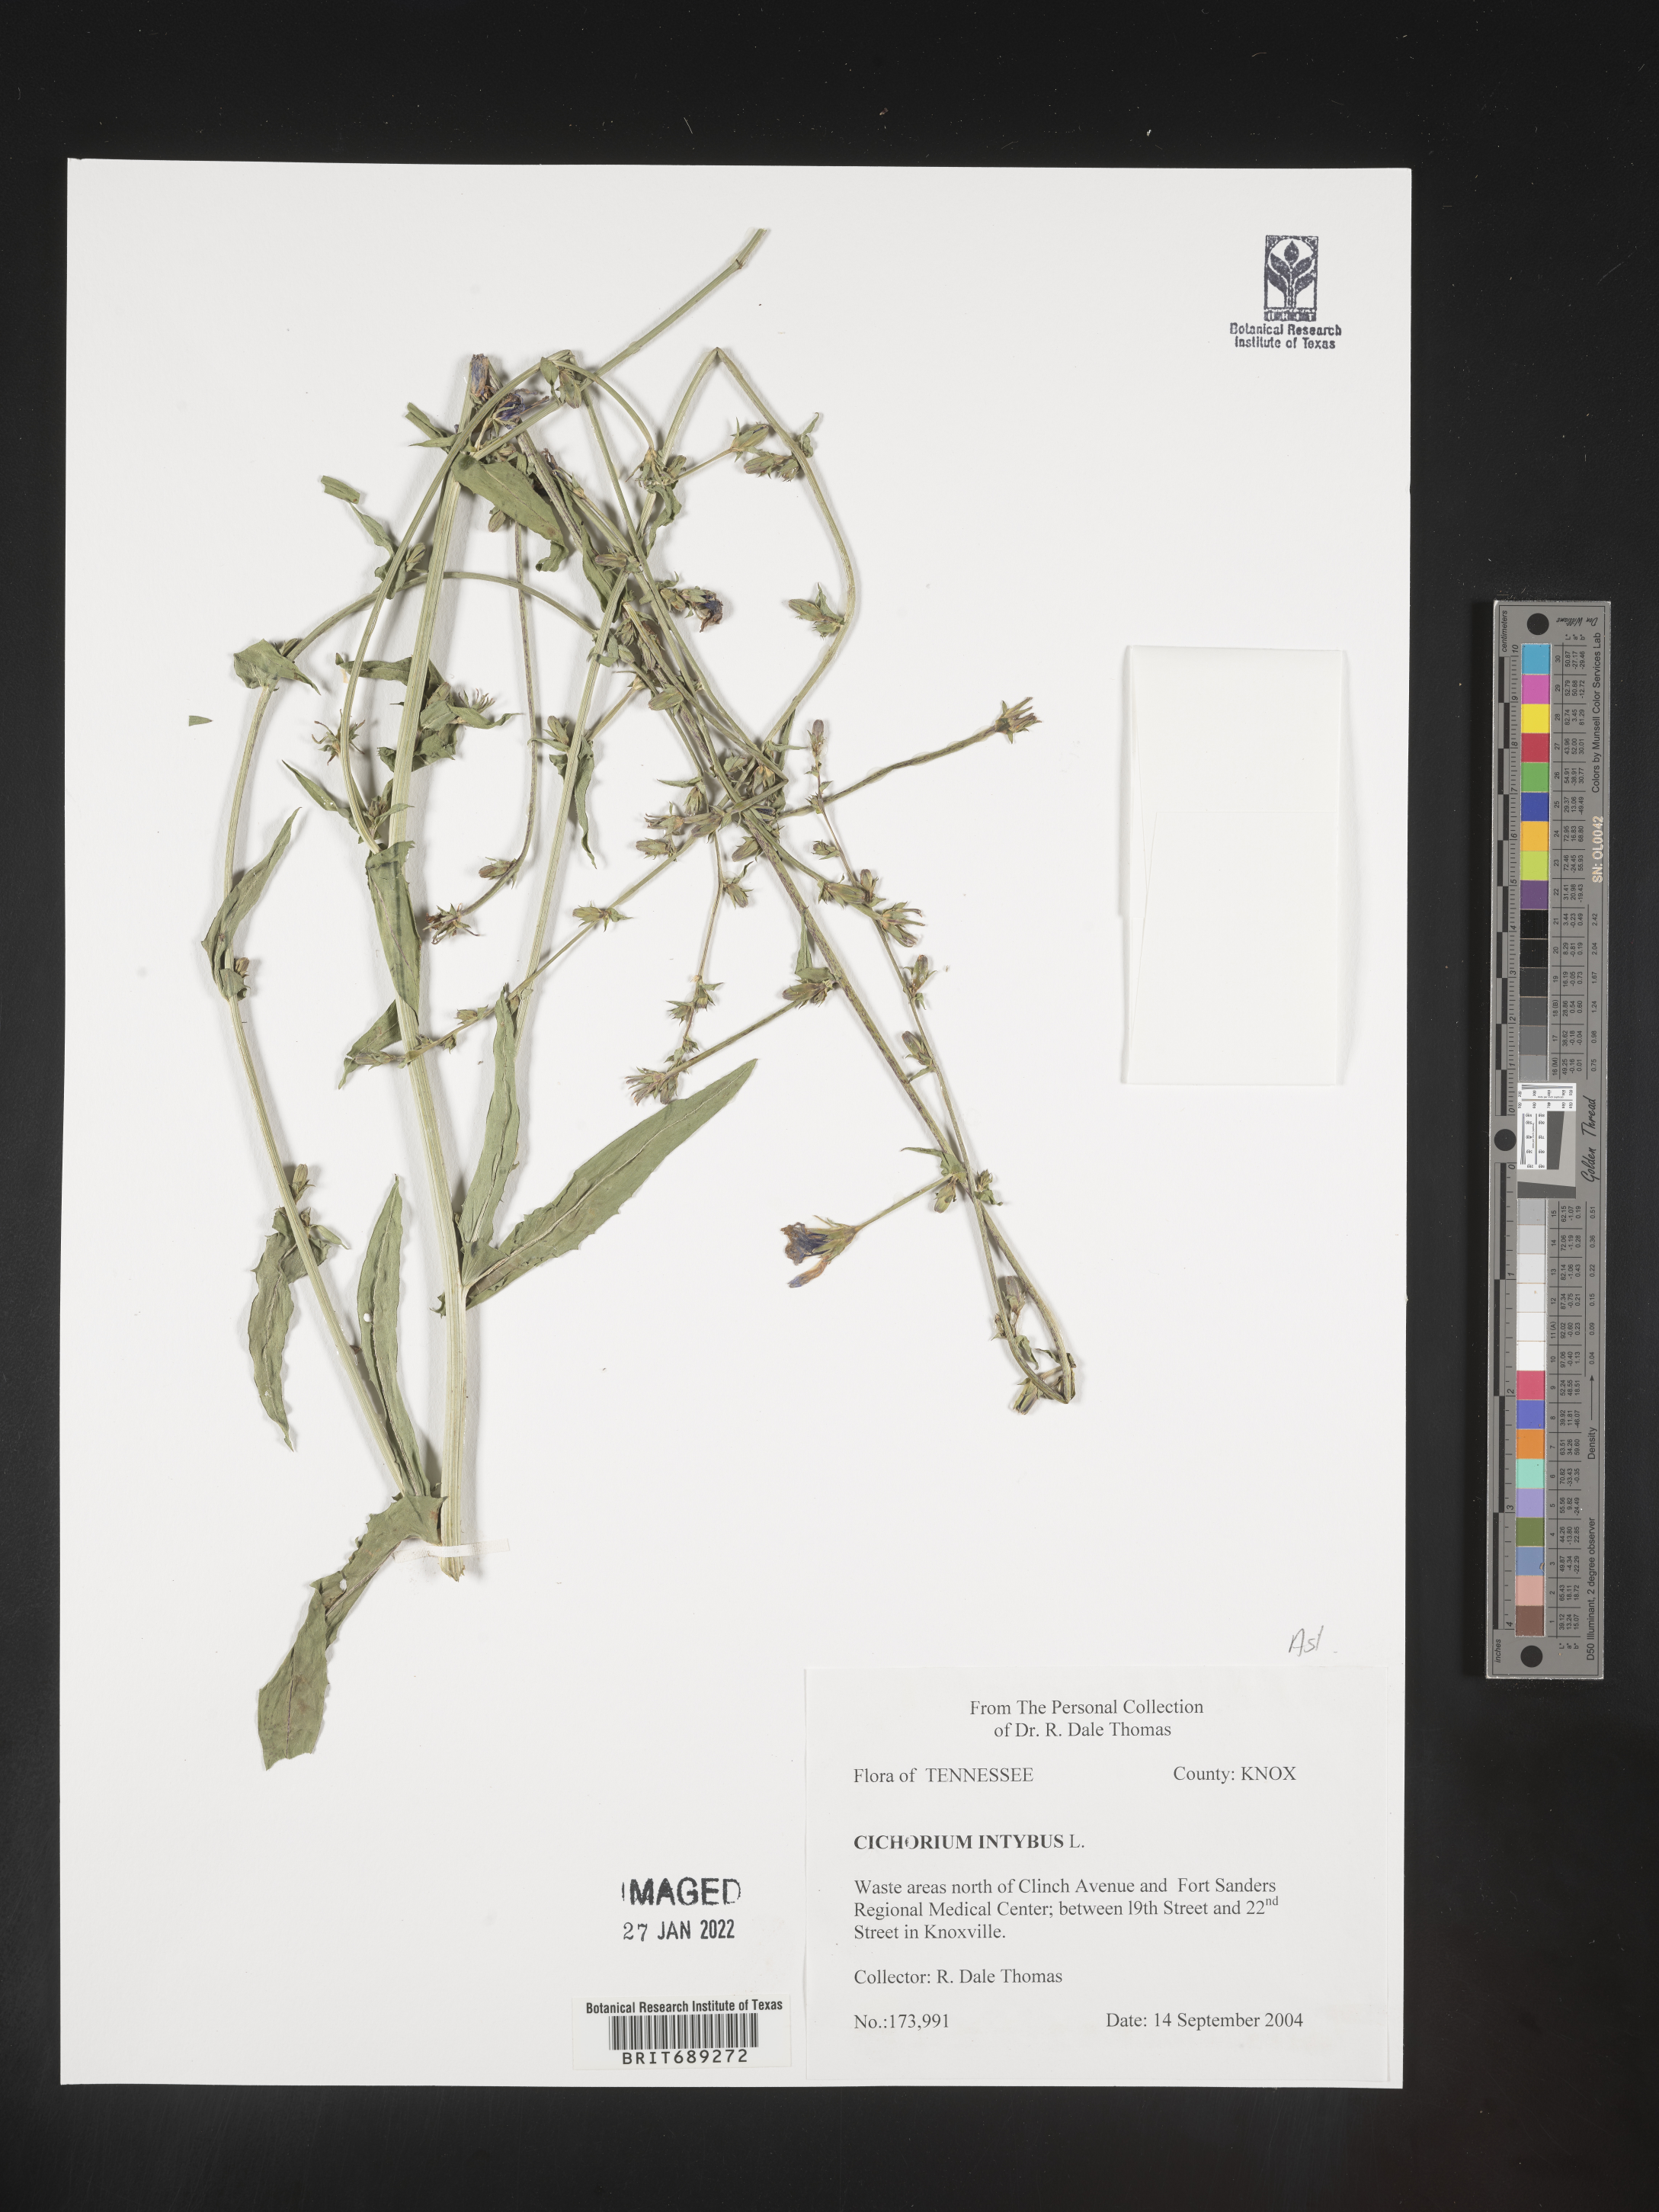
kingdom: Plantae
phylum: Tracheophyta
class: Magnoliopsida
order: Asterales
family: Asteraceae
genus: Cichorium
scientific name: Cichorium intybus
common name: Chicory
